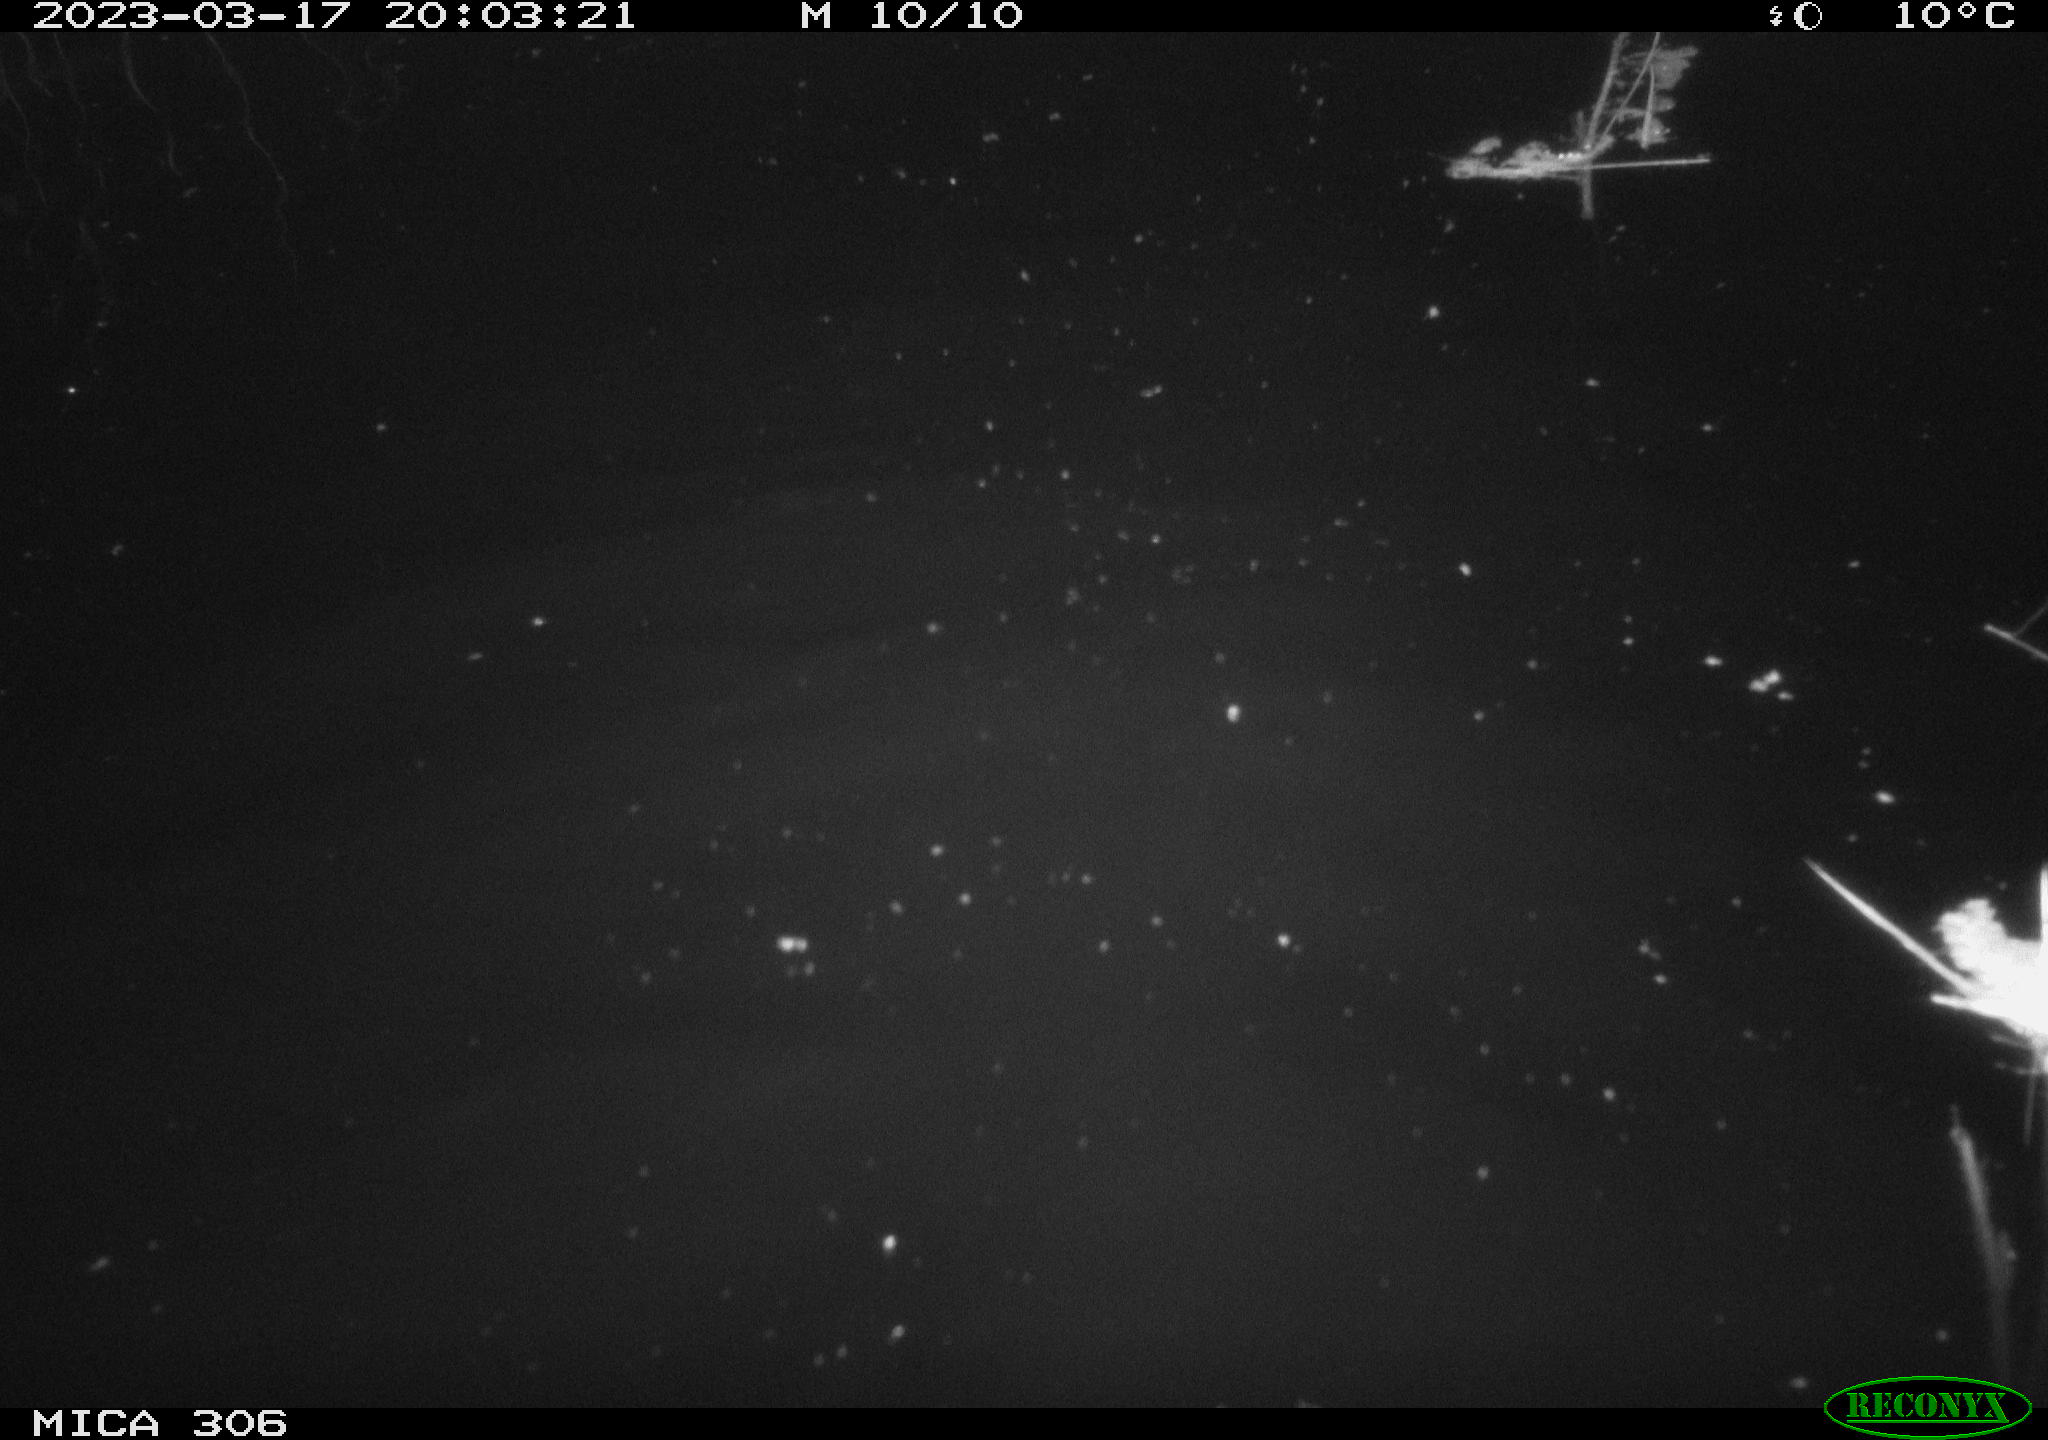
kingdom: Animalia
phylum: Chordata
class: Mammalia
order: Rodentia
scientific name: Rodentia
